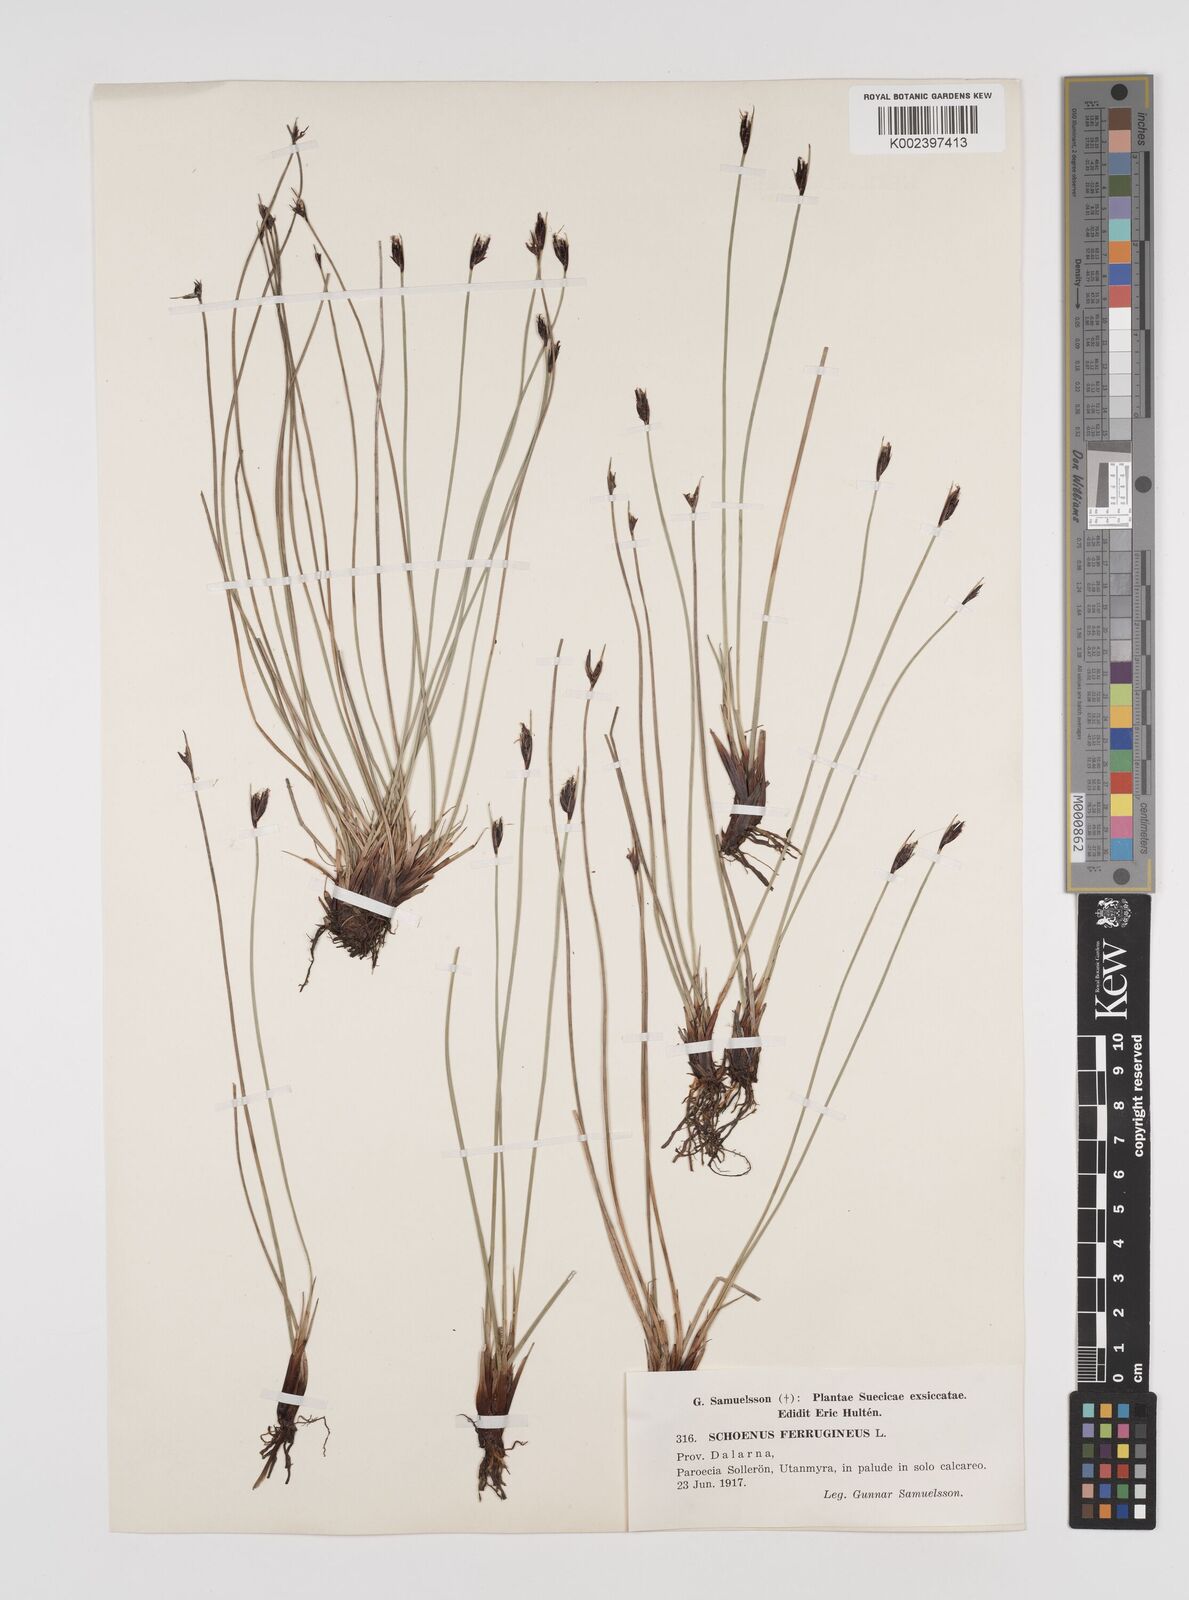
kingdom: Plantae
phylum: Tracheophyta
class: Liliopsida
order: Poales
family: Cyperaceae
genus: Schoenus
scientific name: Schoenus ferrugineus
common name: Brown bog-rush
